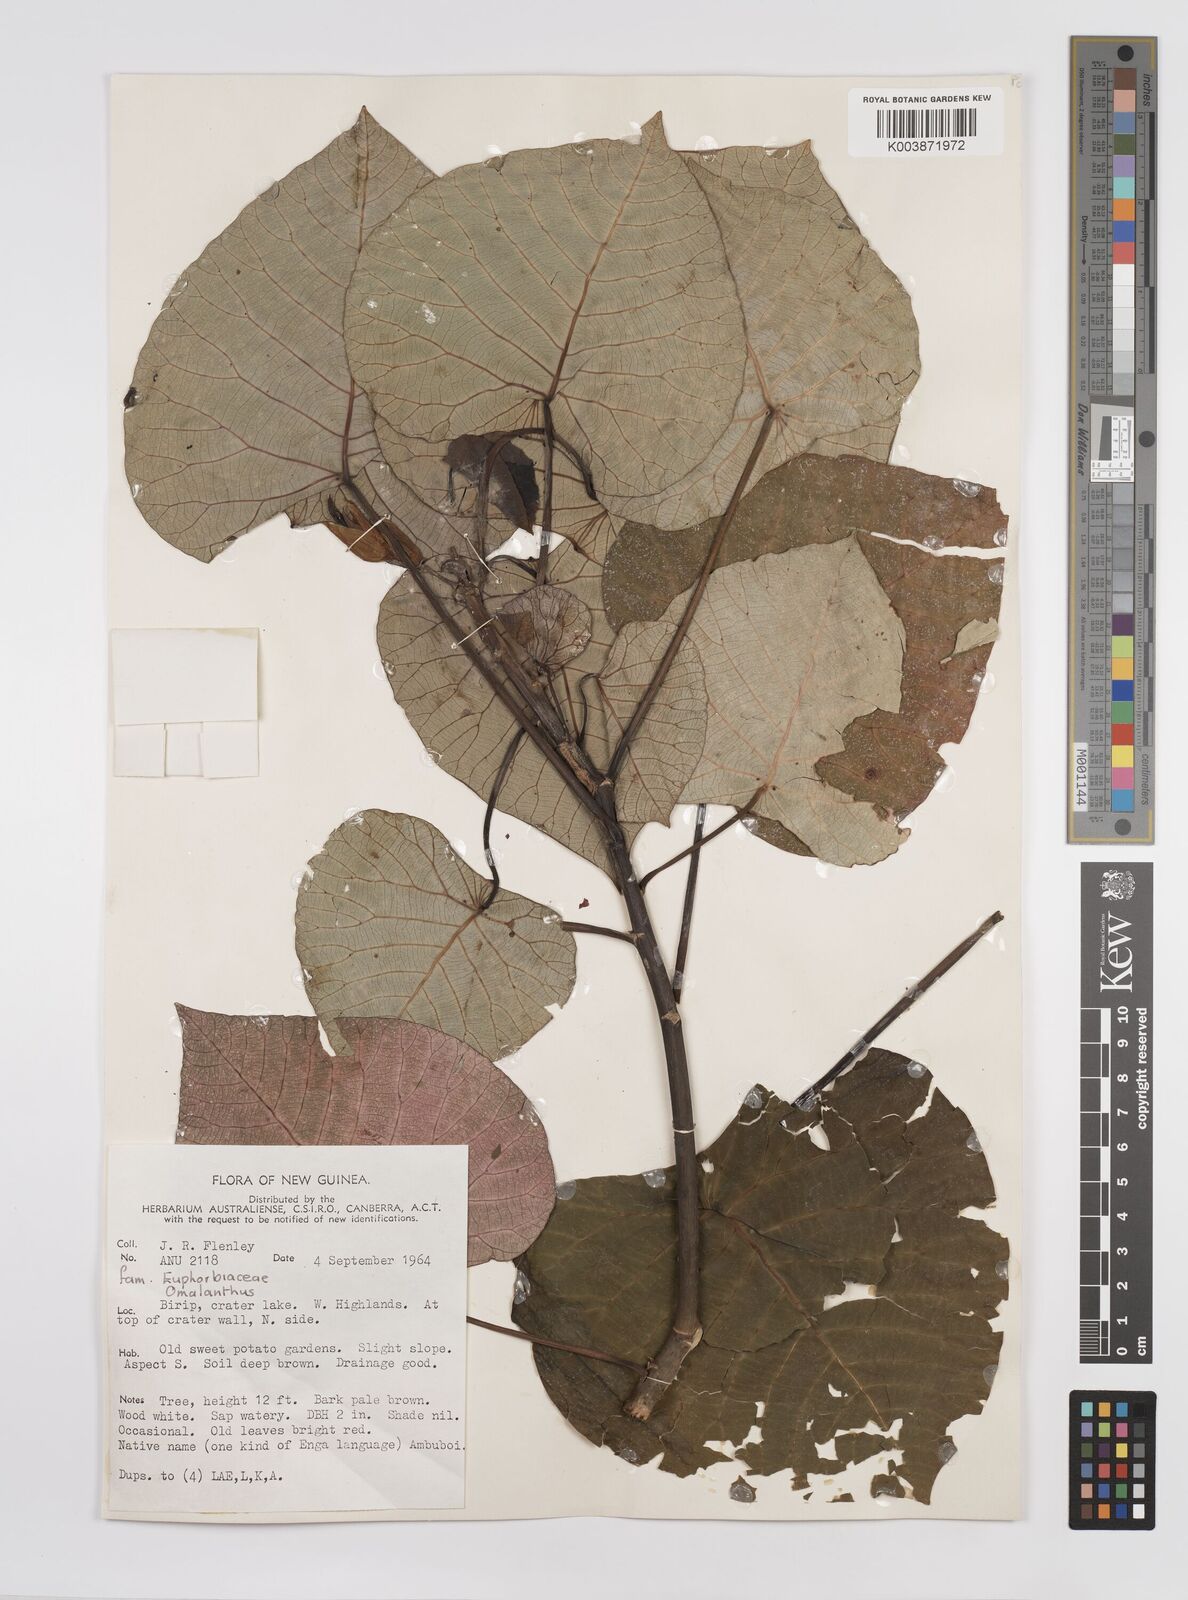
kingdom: Plantae
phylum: Tracheophyta
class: Magnoliopsida
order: Malpighiales
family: Euphorbiaceae
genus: Homalanthus
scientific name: Homalanthus
